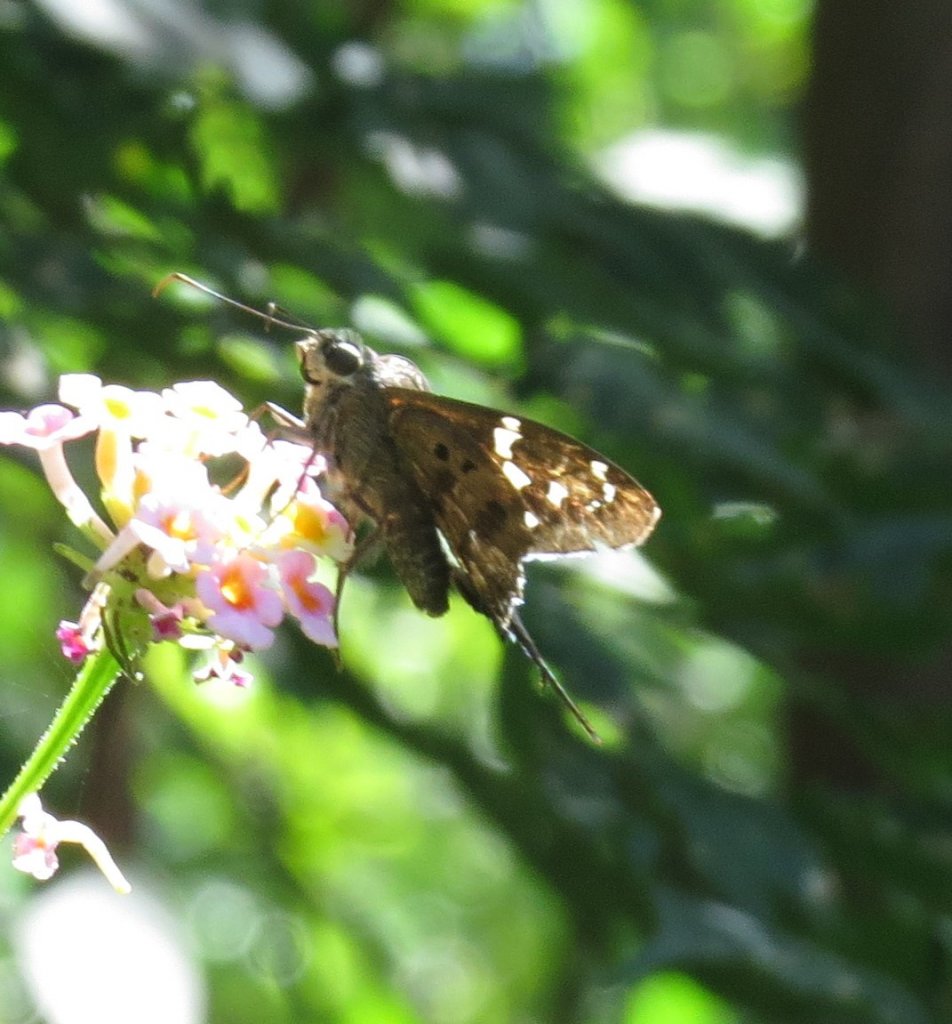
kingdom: Animalia
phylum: Arthropoda
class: Insecta
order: Lepidoptera
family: Hesperiidae
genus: Urbanus
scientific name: Urbanus proteus
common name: Long-tailed Skipper
